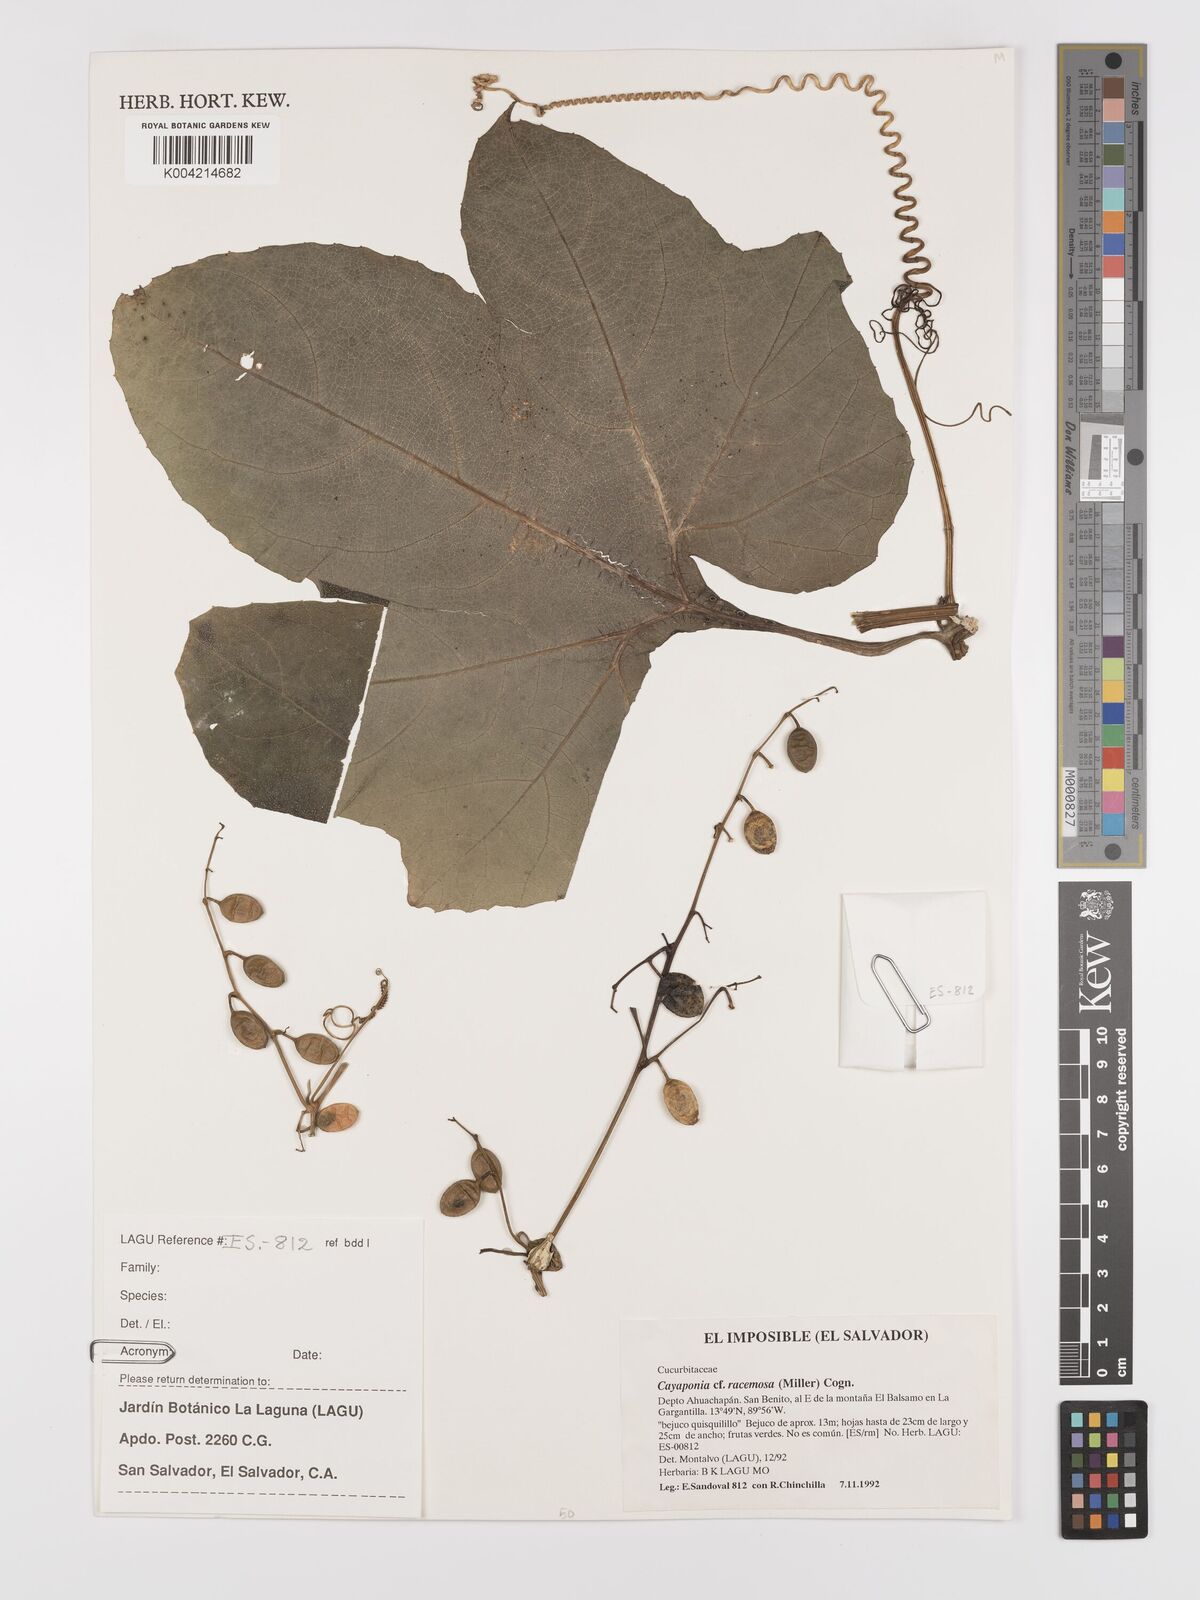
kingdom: Plantae
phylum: Tracheophyta
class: Magnoliopsida
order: Cucurbitales
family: Cucurbitaceae
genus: Cayaponia
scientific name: Cayaponia racemosa
